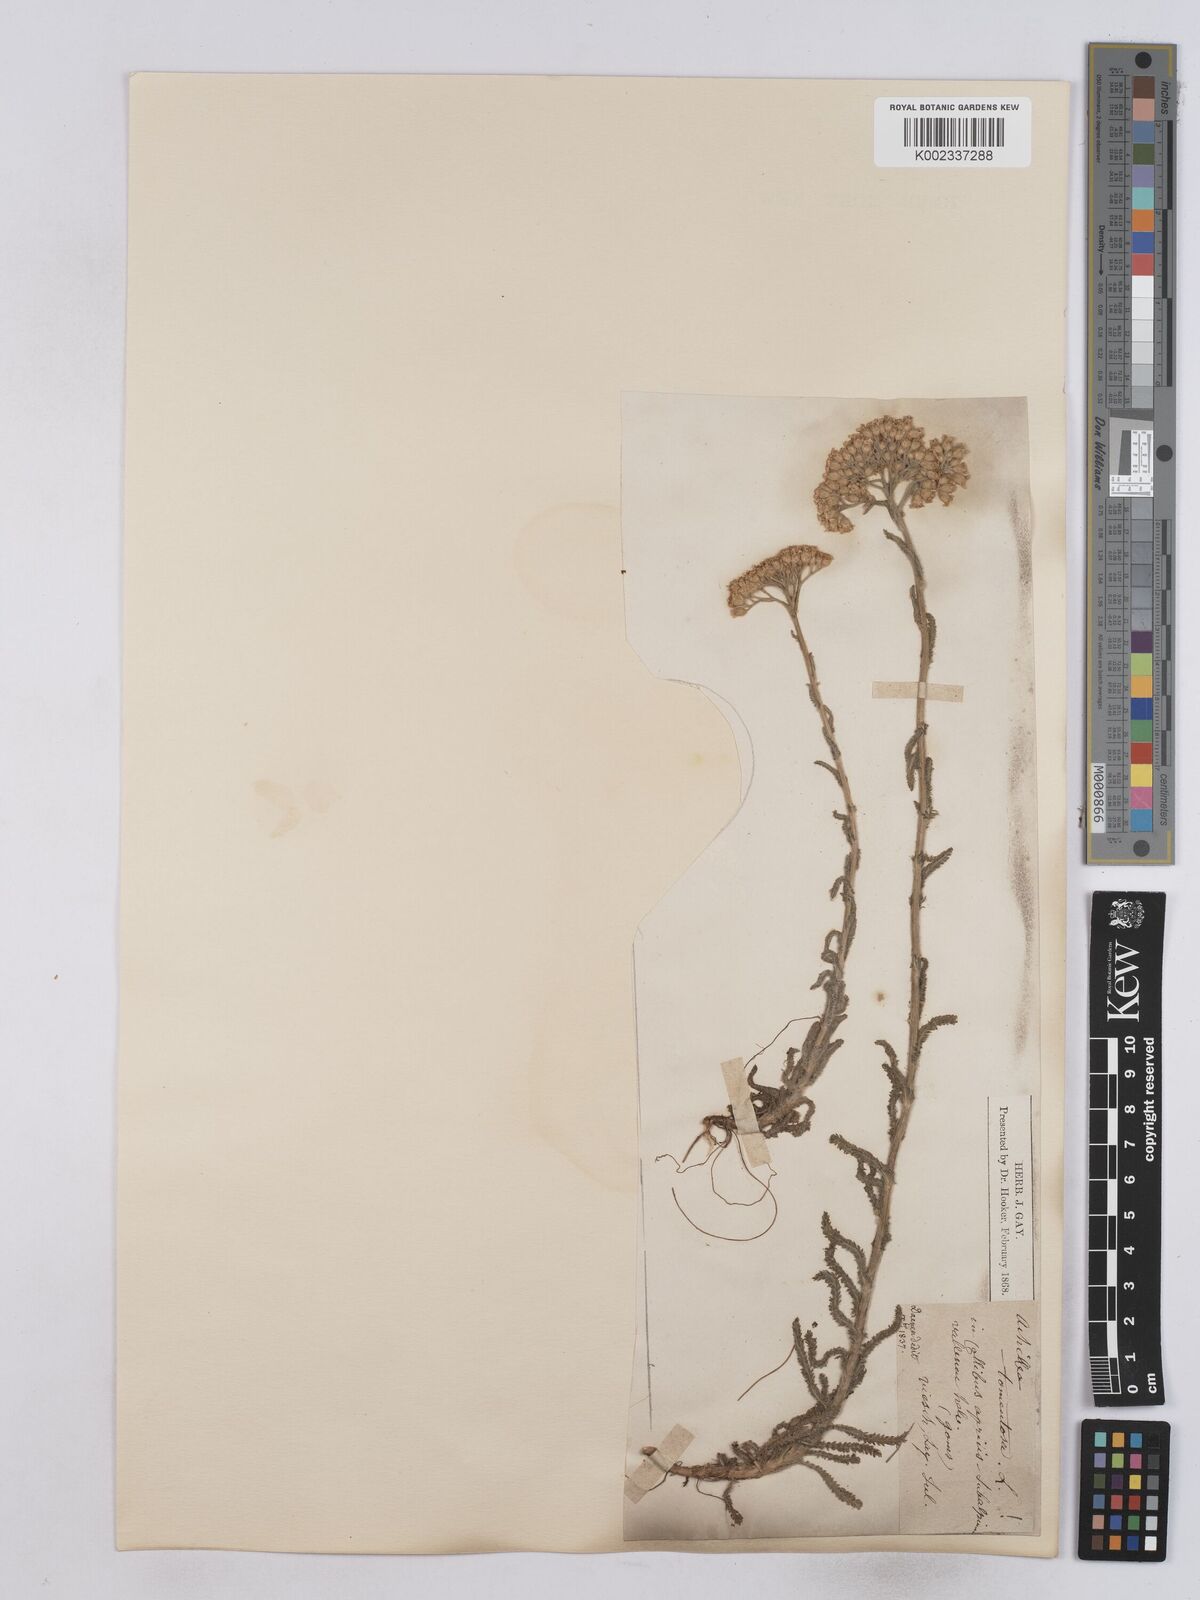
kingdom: Plantae
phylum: Tracheophyta
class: Magnoliopsida
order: Asterales
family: Asteraceae
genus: Achillea
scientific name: Achillea tomentosa
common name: Yellow milfoil
